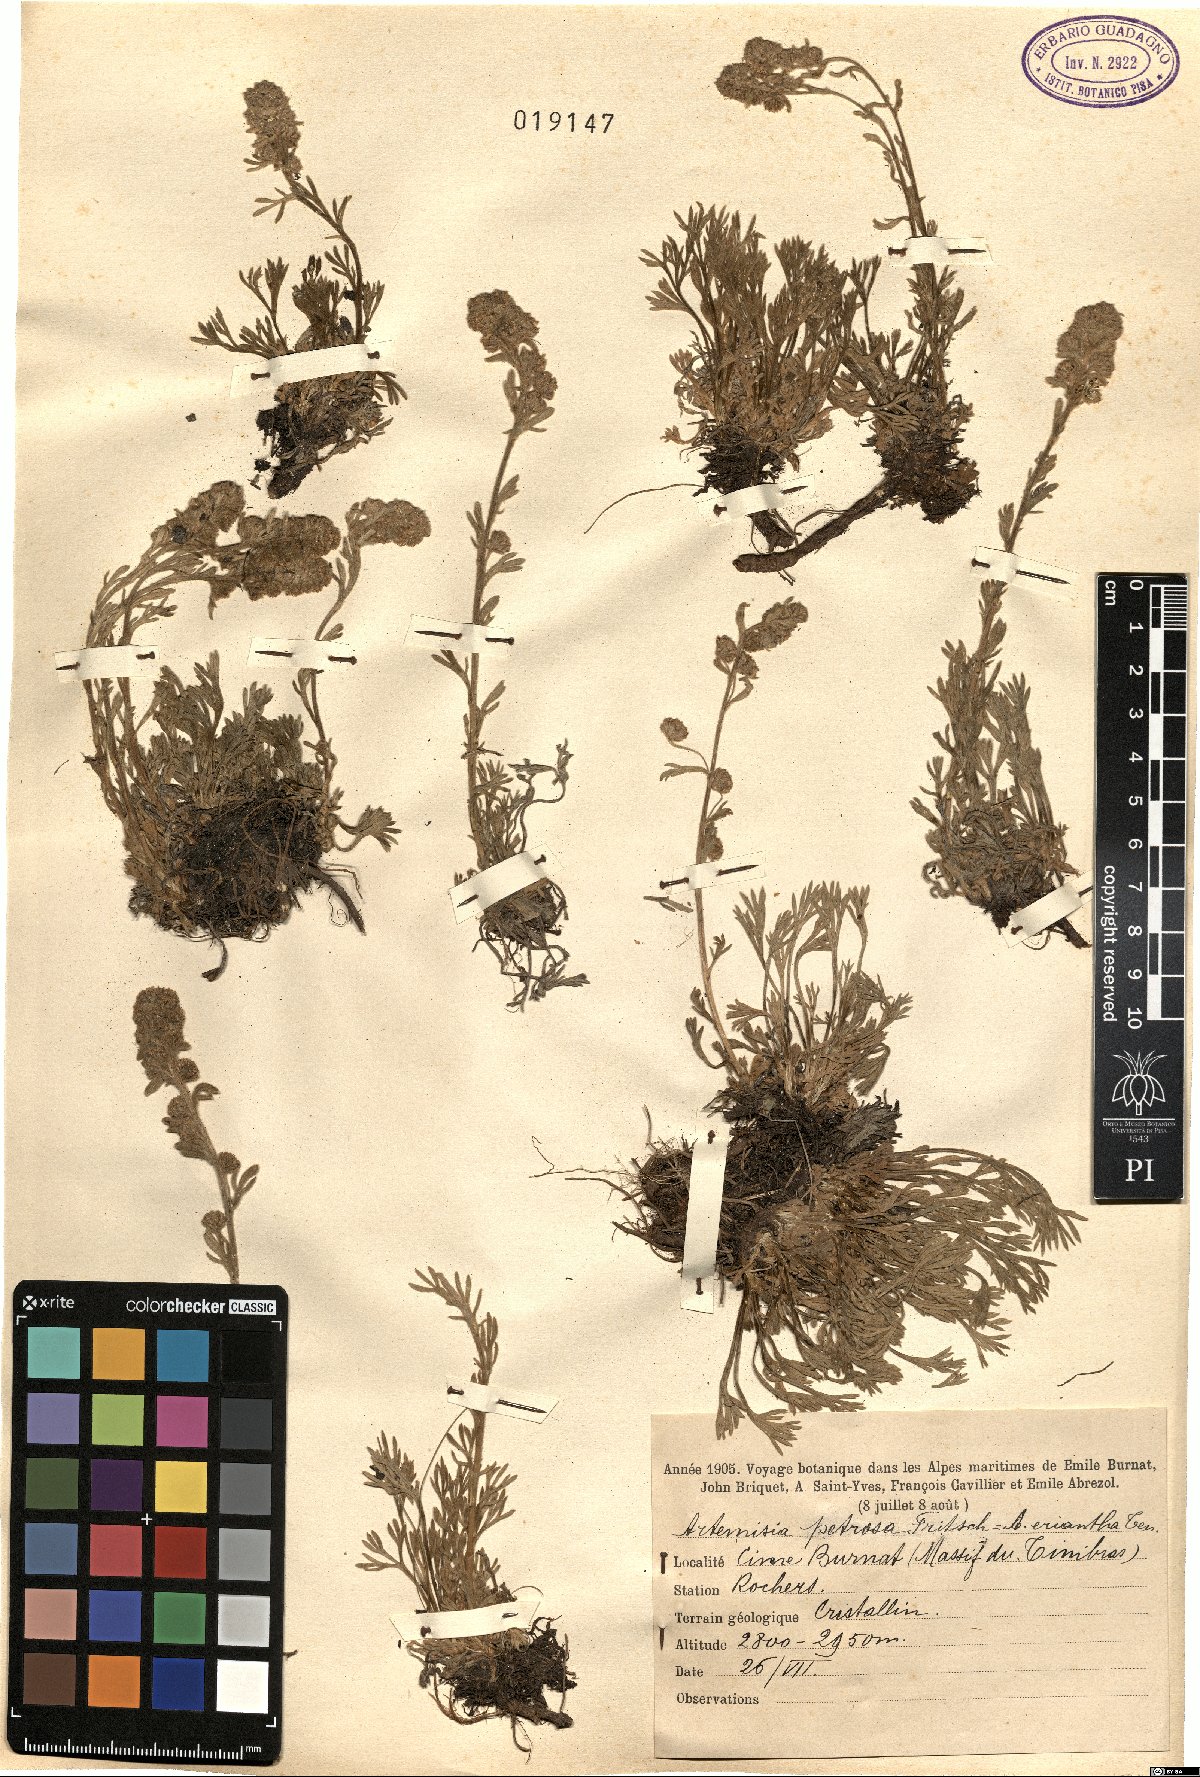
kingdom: Plantae
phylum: Tracheophyta
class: Magnoliopsida
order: Asterales
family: Asteraceae
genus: Artemisia
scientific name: Artemisia mutellina
